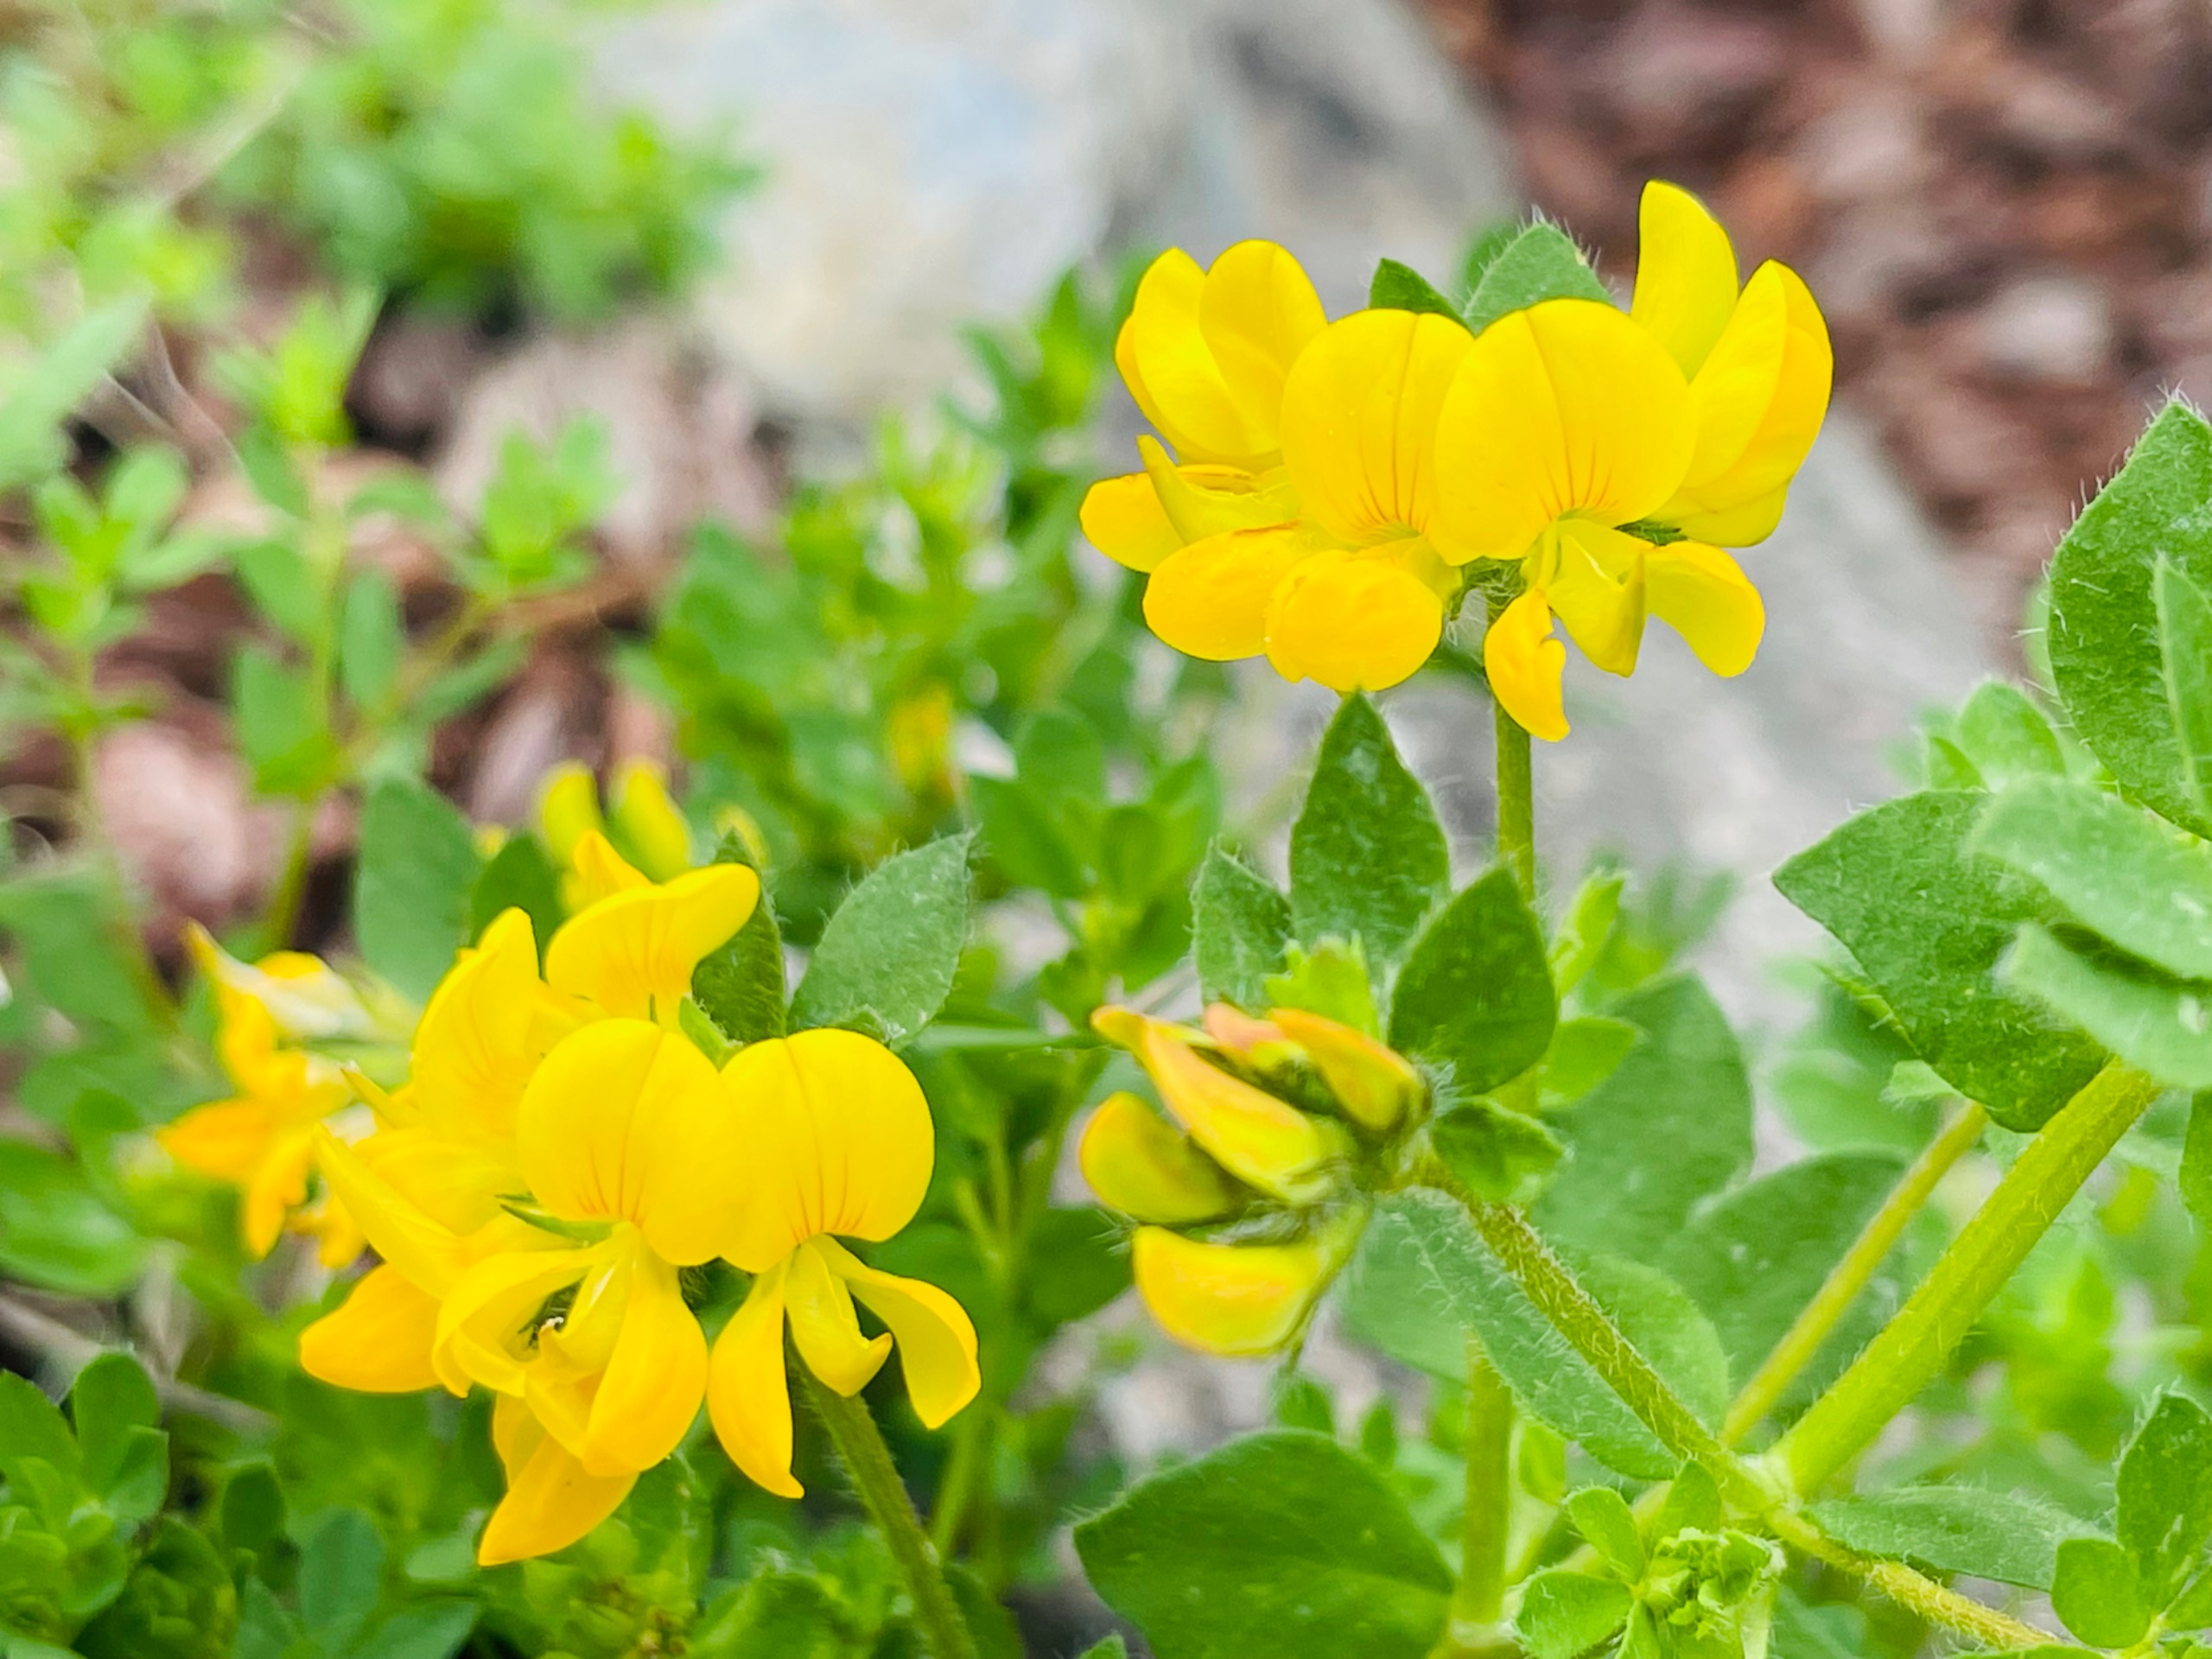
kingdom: Plantae
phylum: Tracheophyta
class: Magnoliopsida
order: Fabales
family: Fabaceae
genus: Lotus
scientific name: Lotus corniculatus
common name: Almindelig kællingetand
